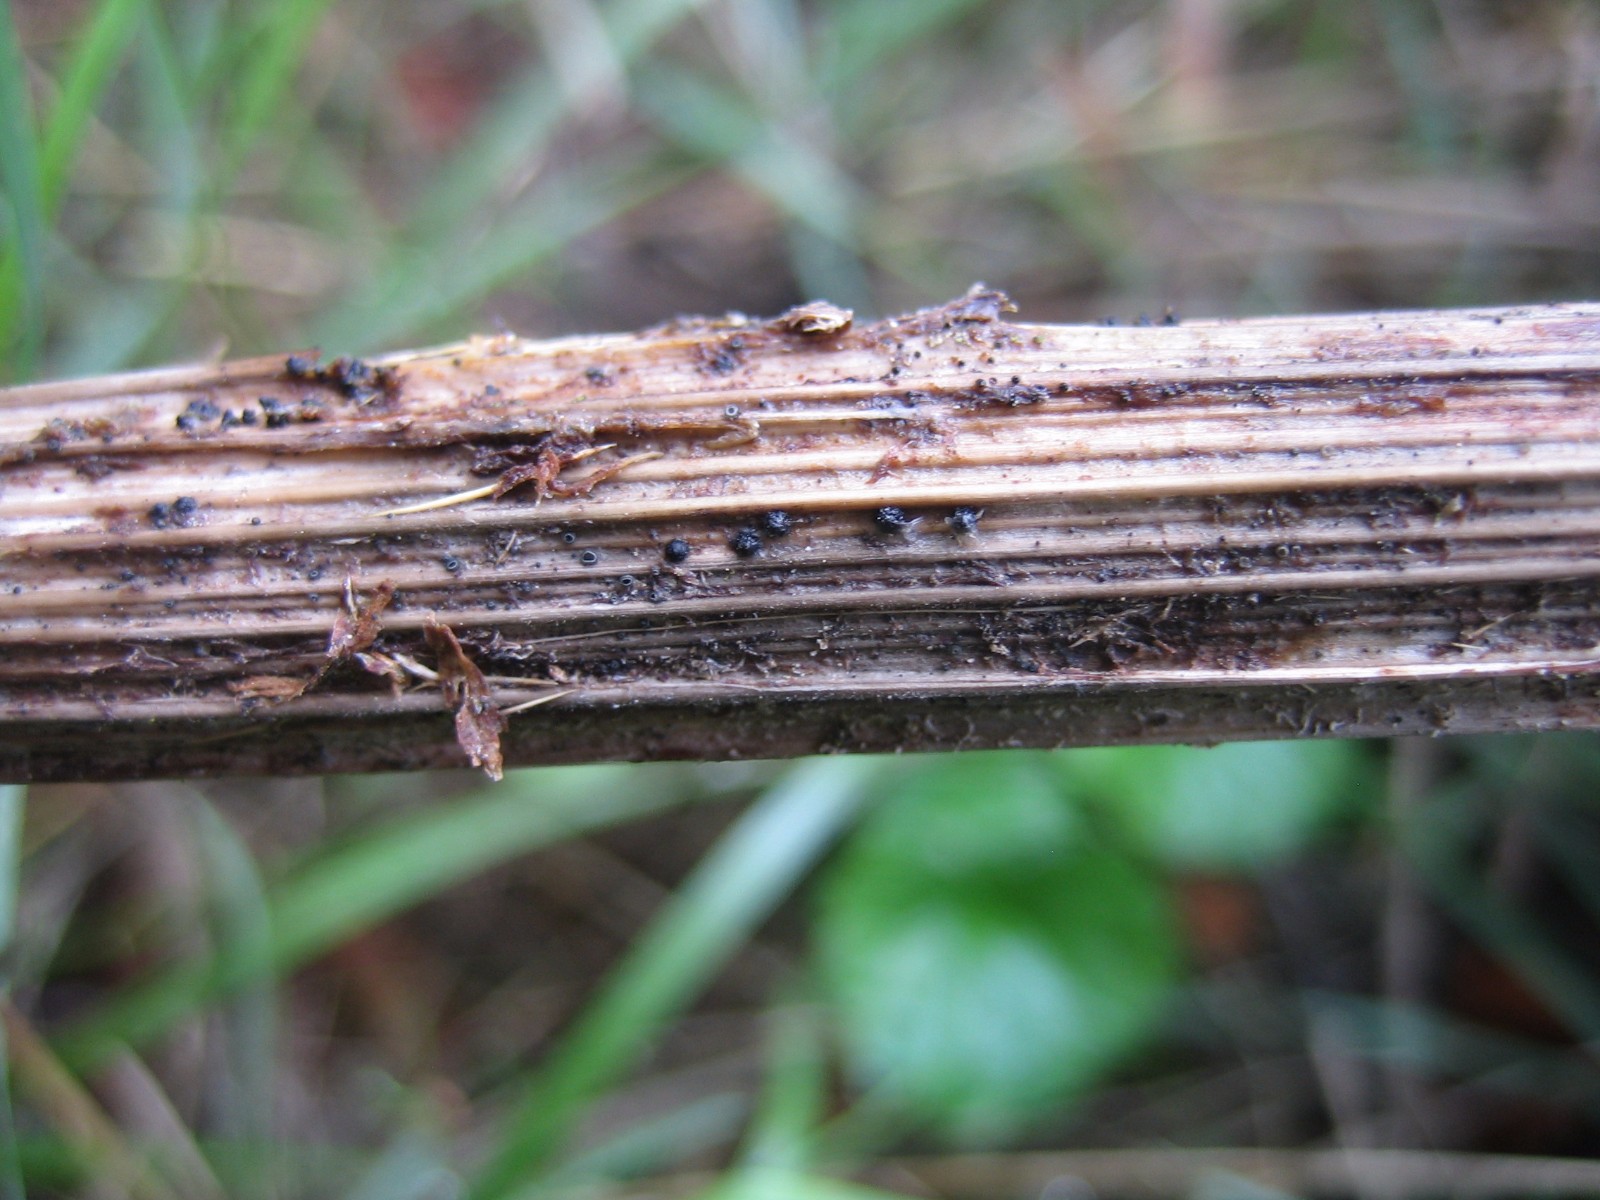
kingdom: Fungi
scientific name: Fungi
